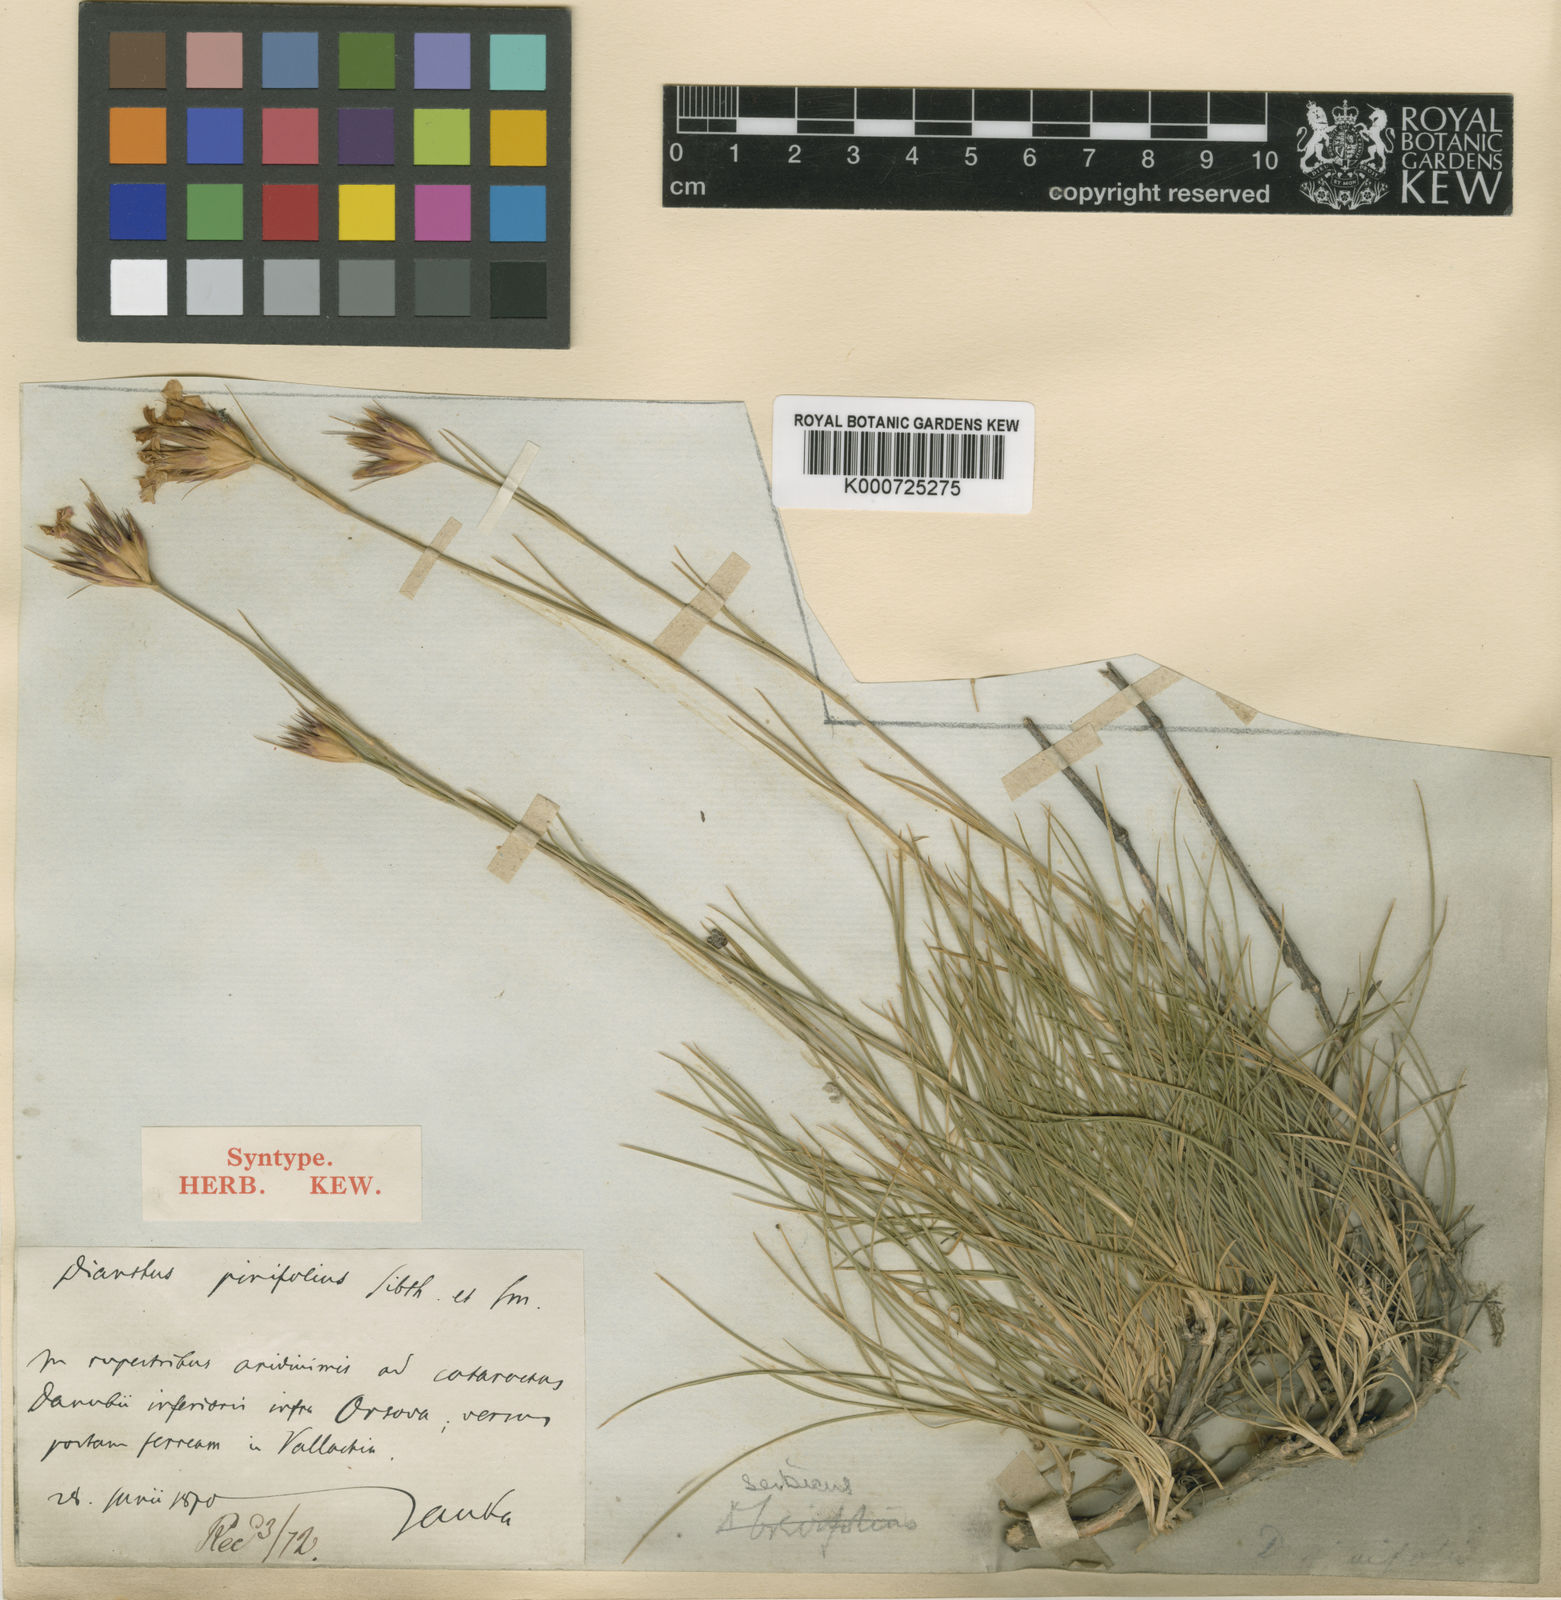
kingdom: Plantae
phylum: Tracheophyta
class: Magnoliopsida
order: Caryophyllales
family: Caryophyllaceae
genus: Dianthus
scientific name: Dianthus pinifolius
